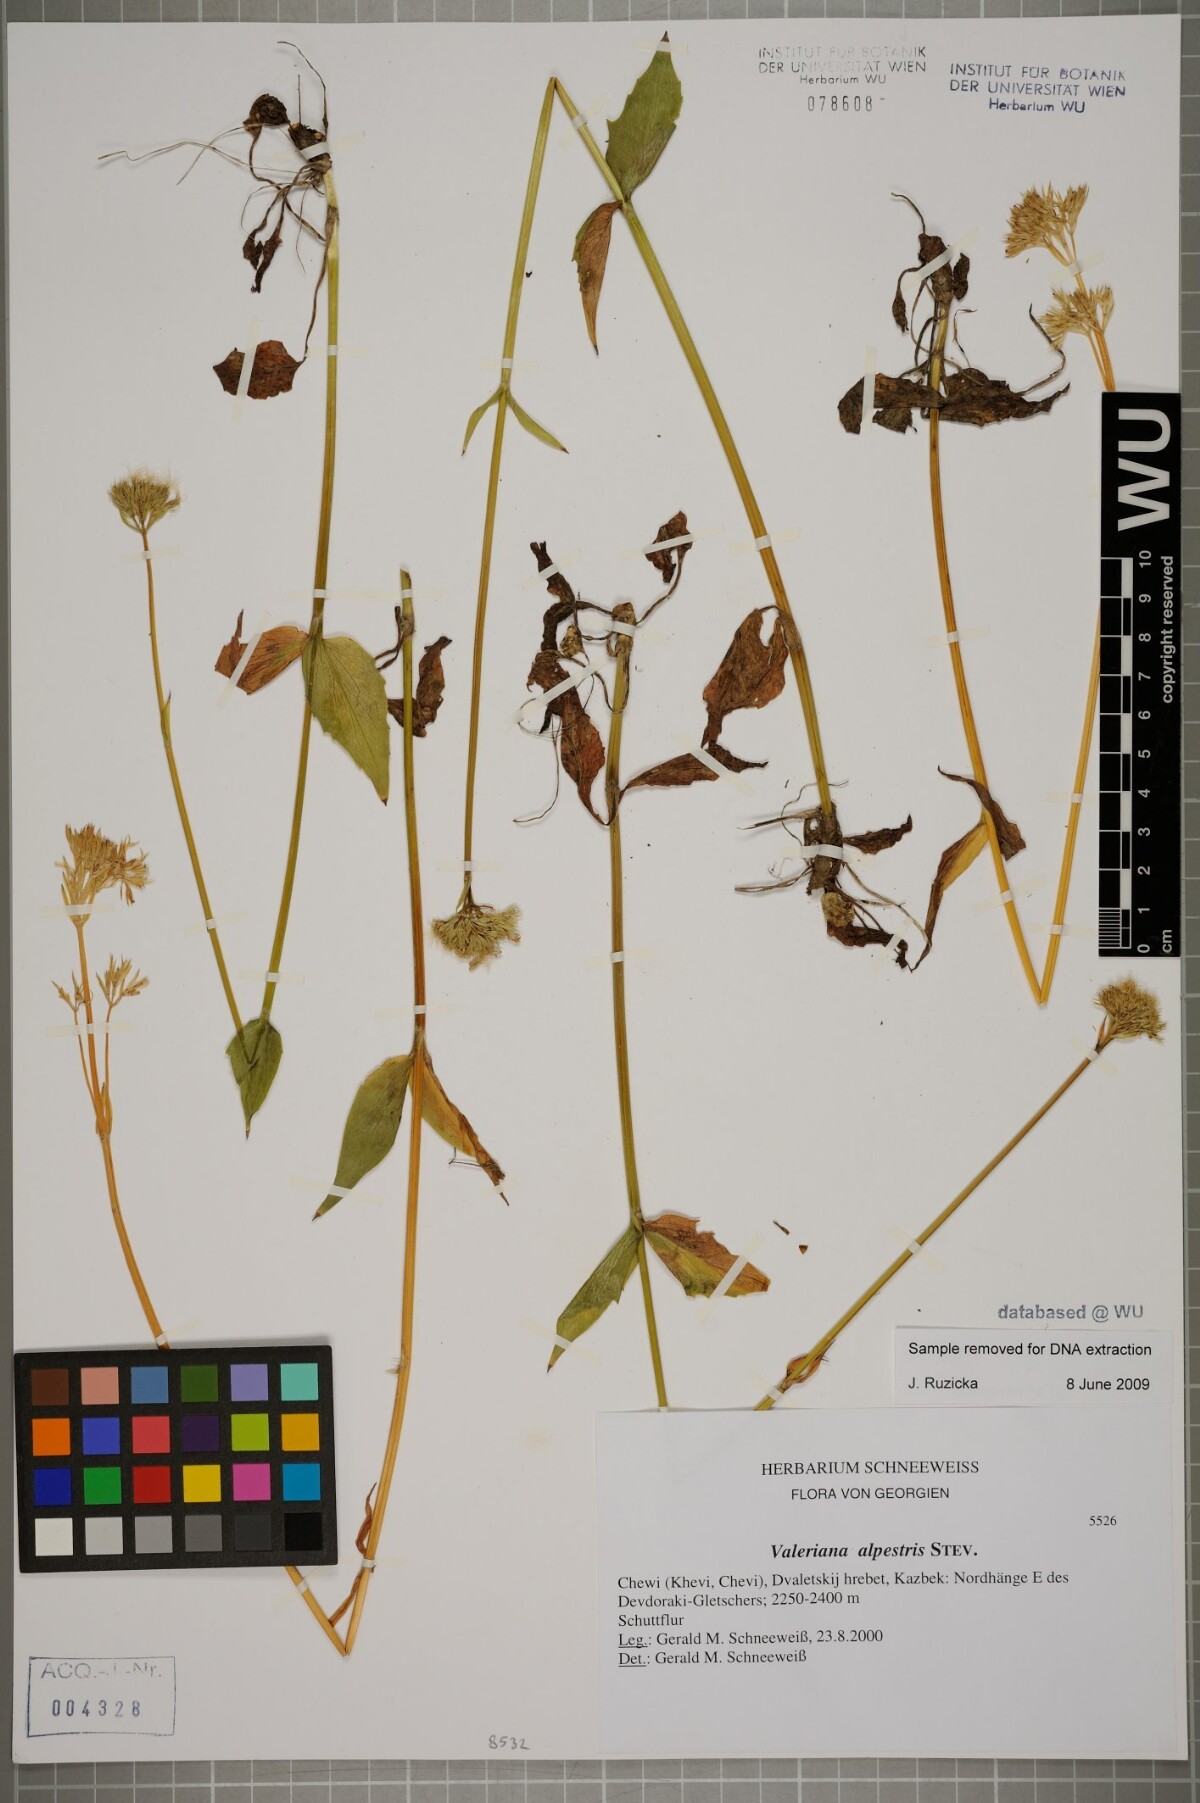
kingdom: Plantae
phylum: Tracheophyta
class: Magnoliopsida
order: Dipsacales
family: Caprifoliaceae
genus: Valeriana
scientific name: Valeriana alpestris
